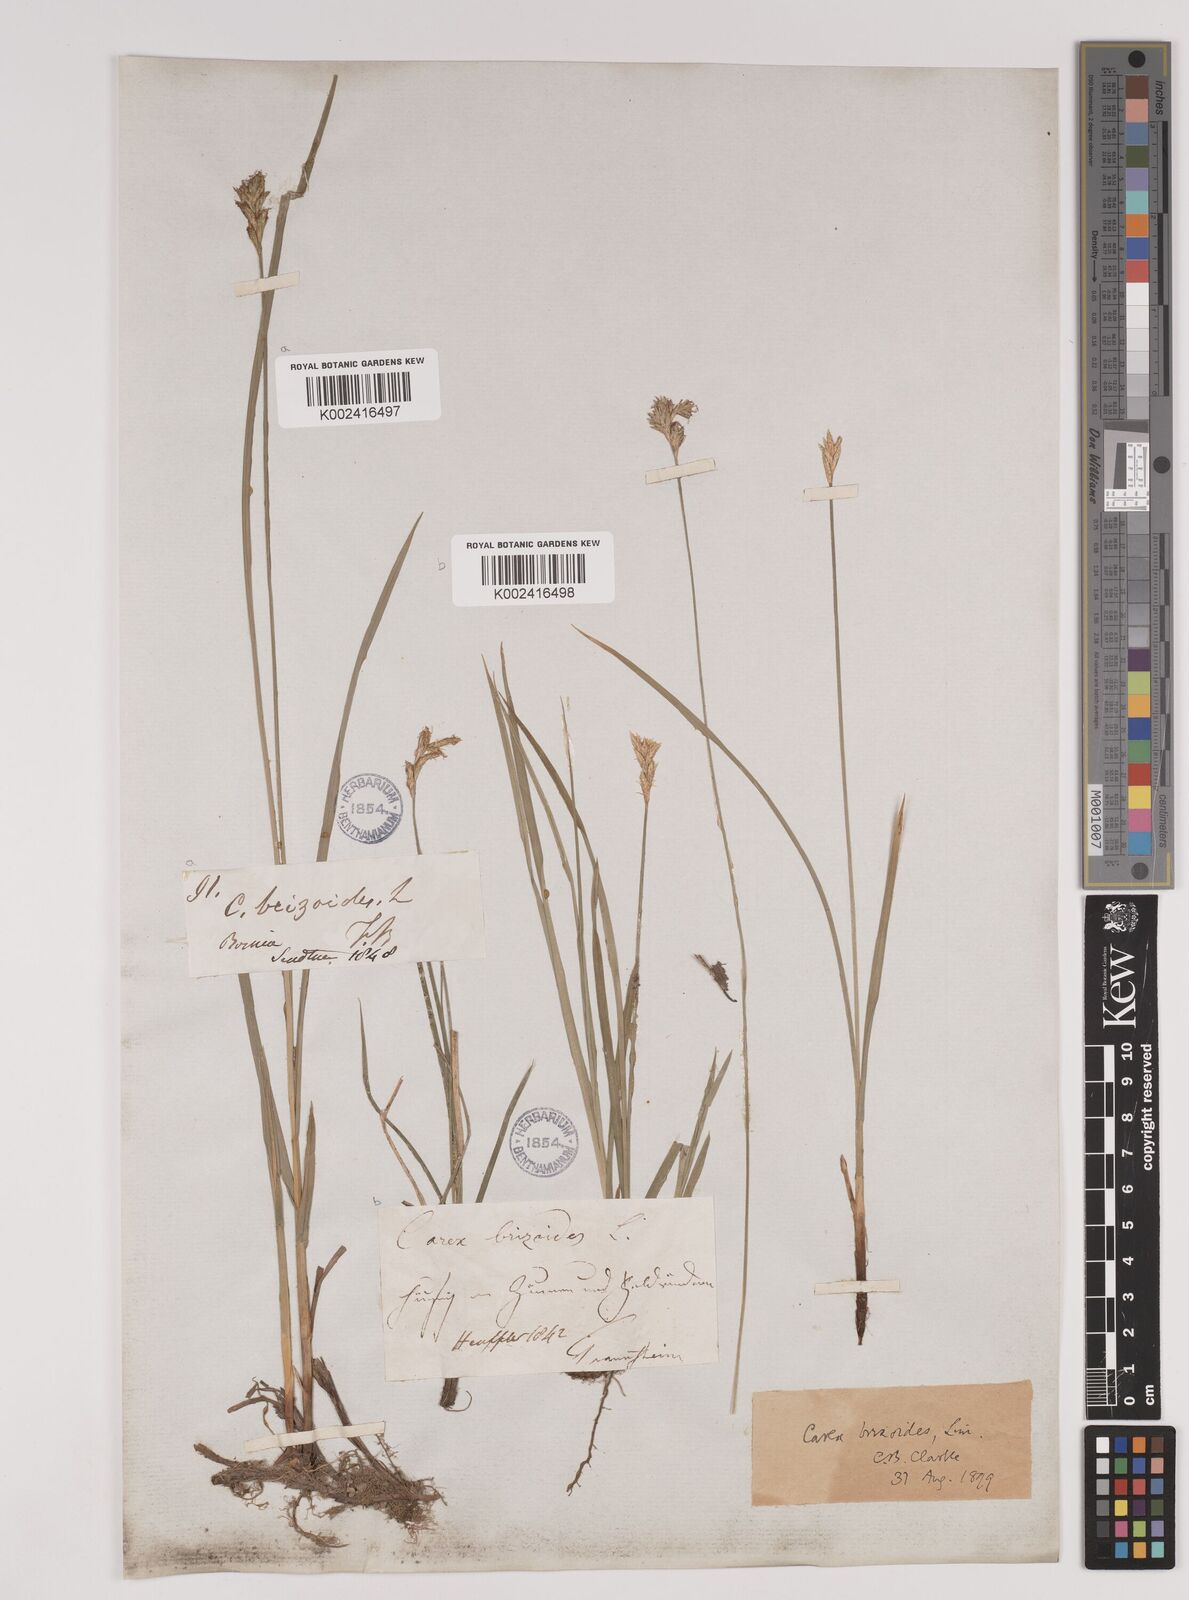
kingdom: Plantae
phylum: Tracheophyta
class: Liliopsida
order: Poales
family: Cyperaceae
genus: Carex
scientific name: Carex brizoides
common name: Quaking-grass sedge
